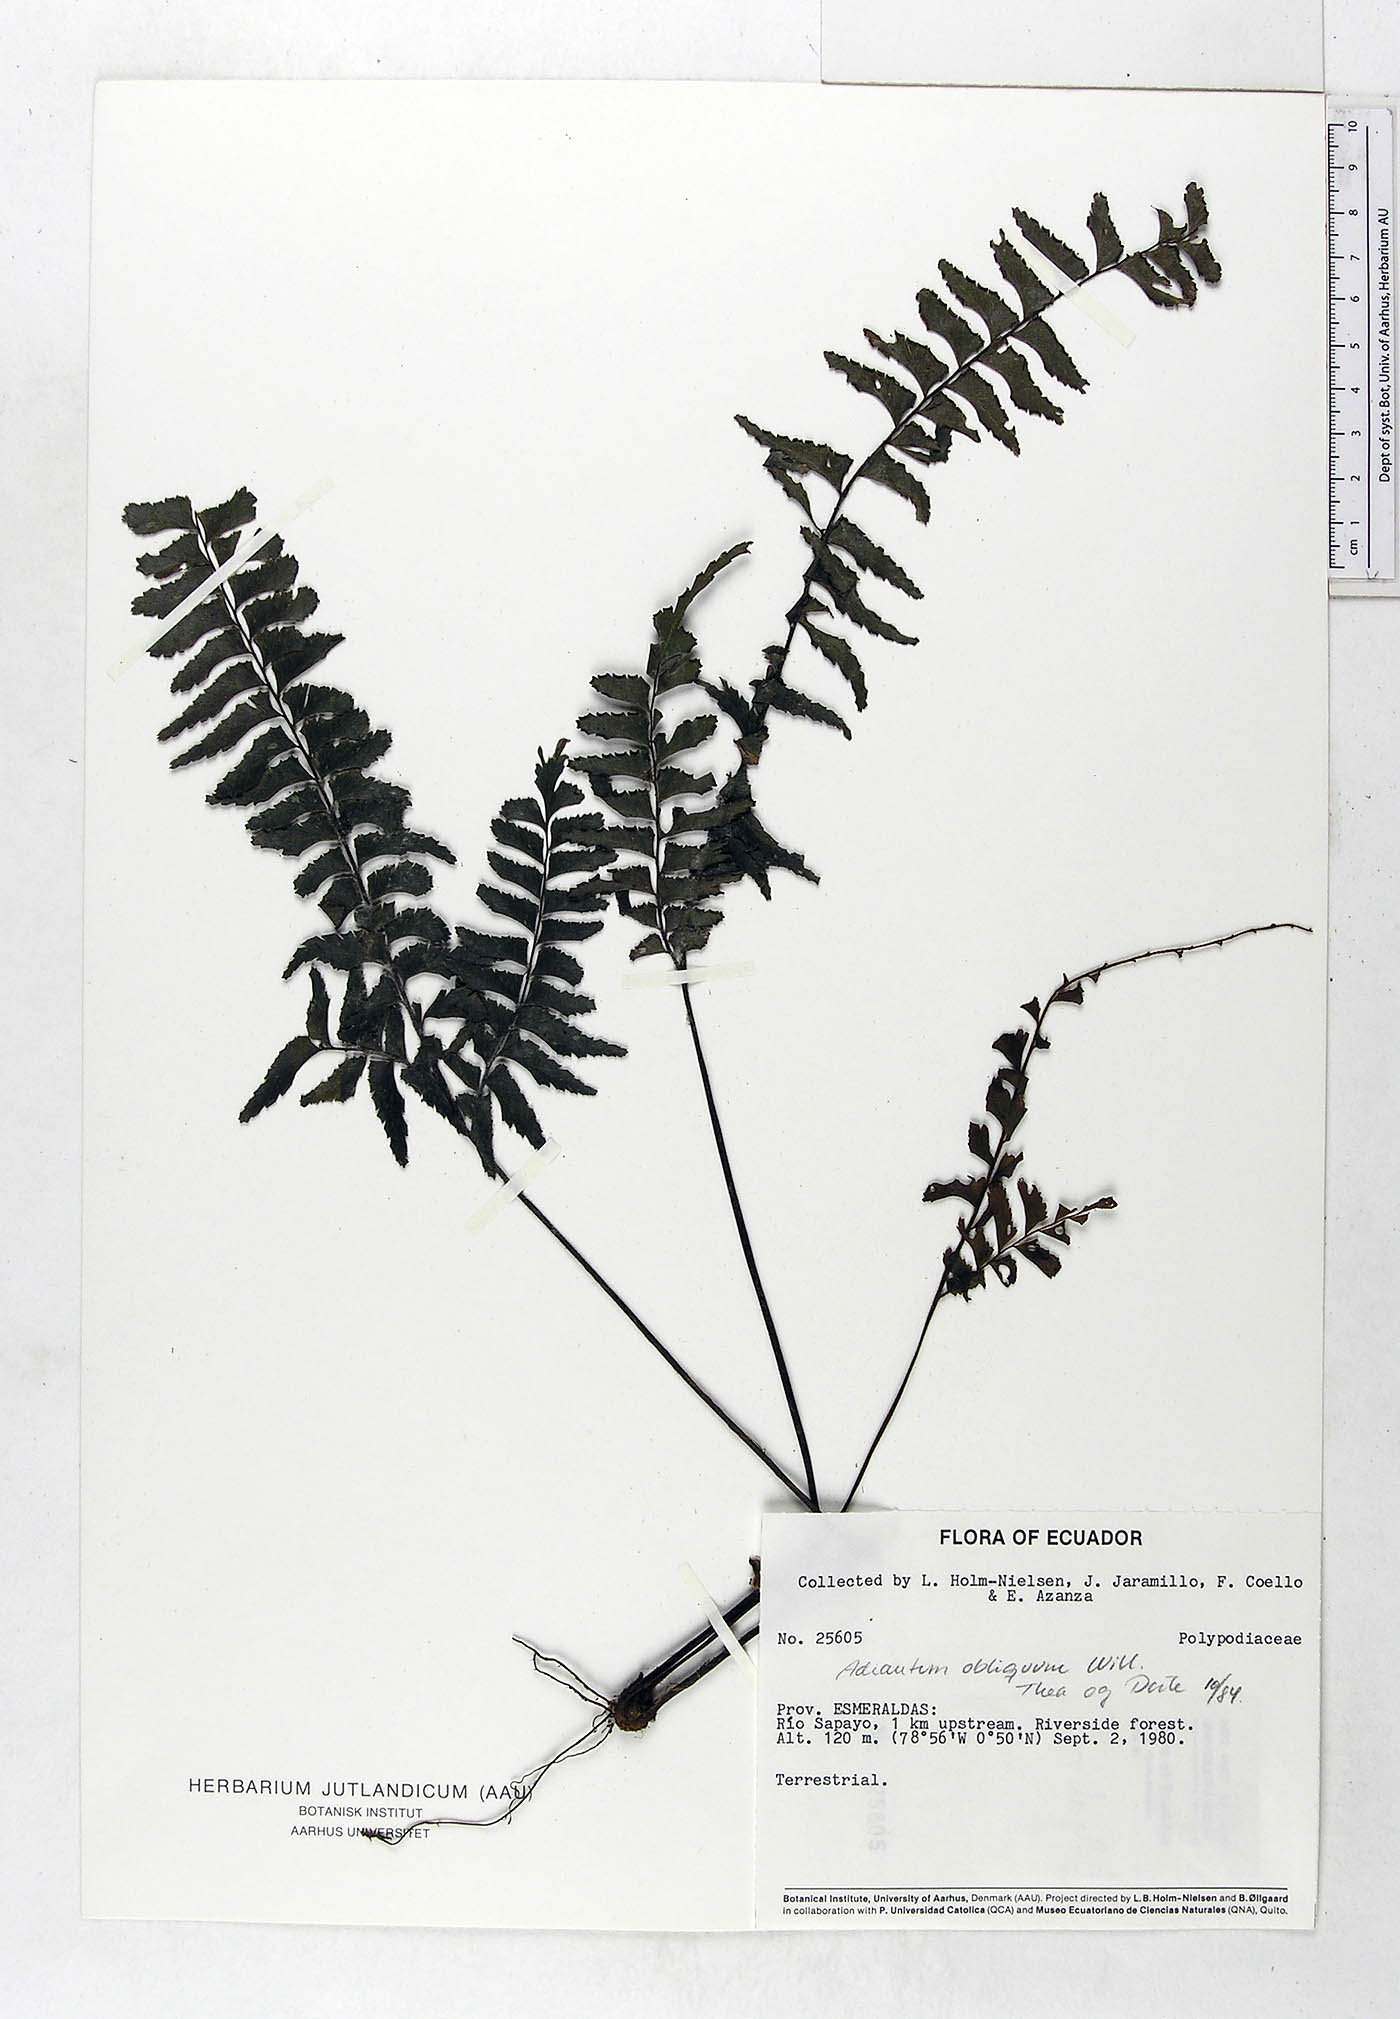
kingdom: Plantae
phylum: Tracheophyta
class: Polypodiopsida
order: Polypodiales
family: Pteridaceae
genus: Adiantum
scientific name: Adiantum obliquum
